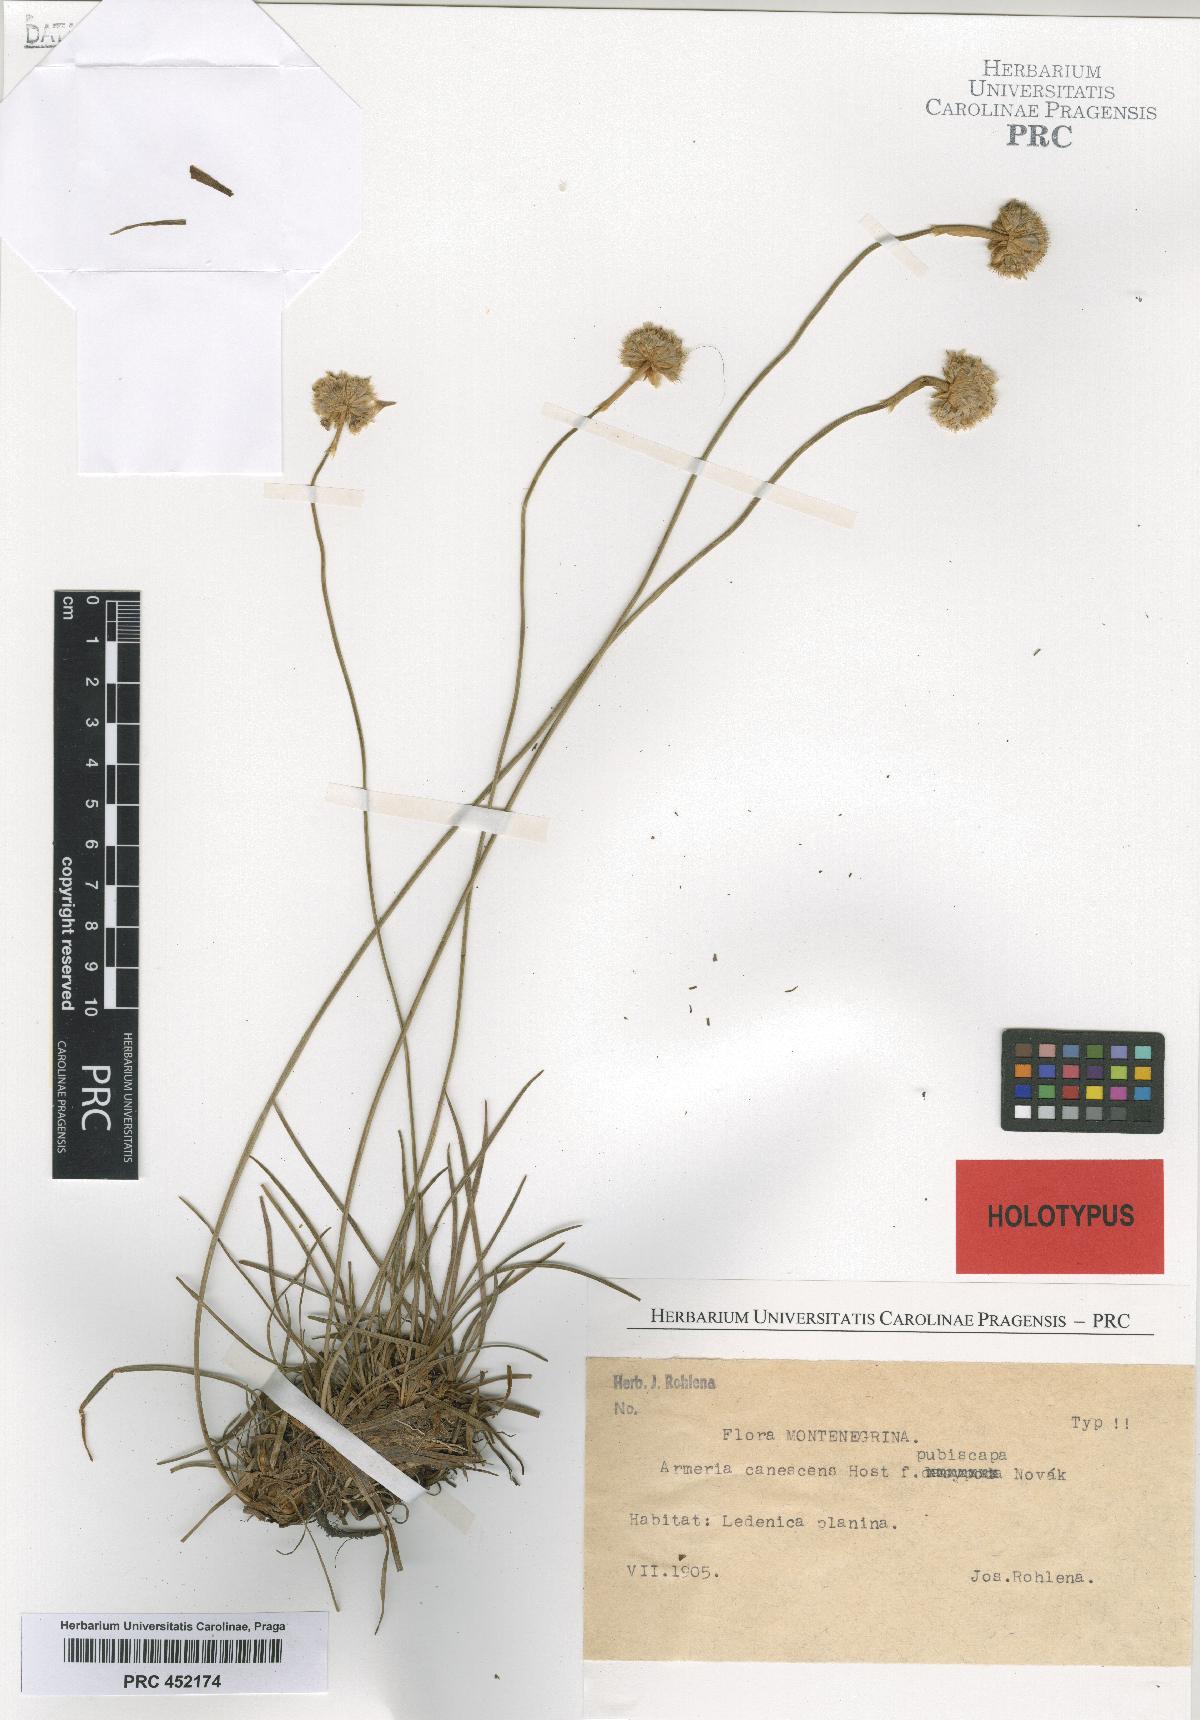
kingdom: Plantae
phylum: Tracheophyta
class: Magnoliopsida
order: Caryophyllales
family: Plumbaginaceae
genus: Armeria
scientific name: Armeria canescens
